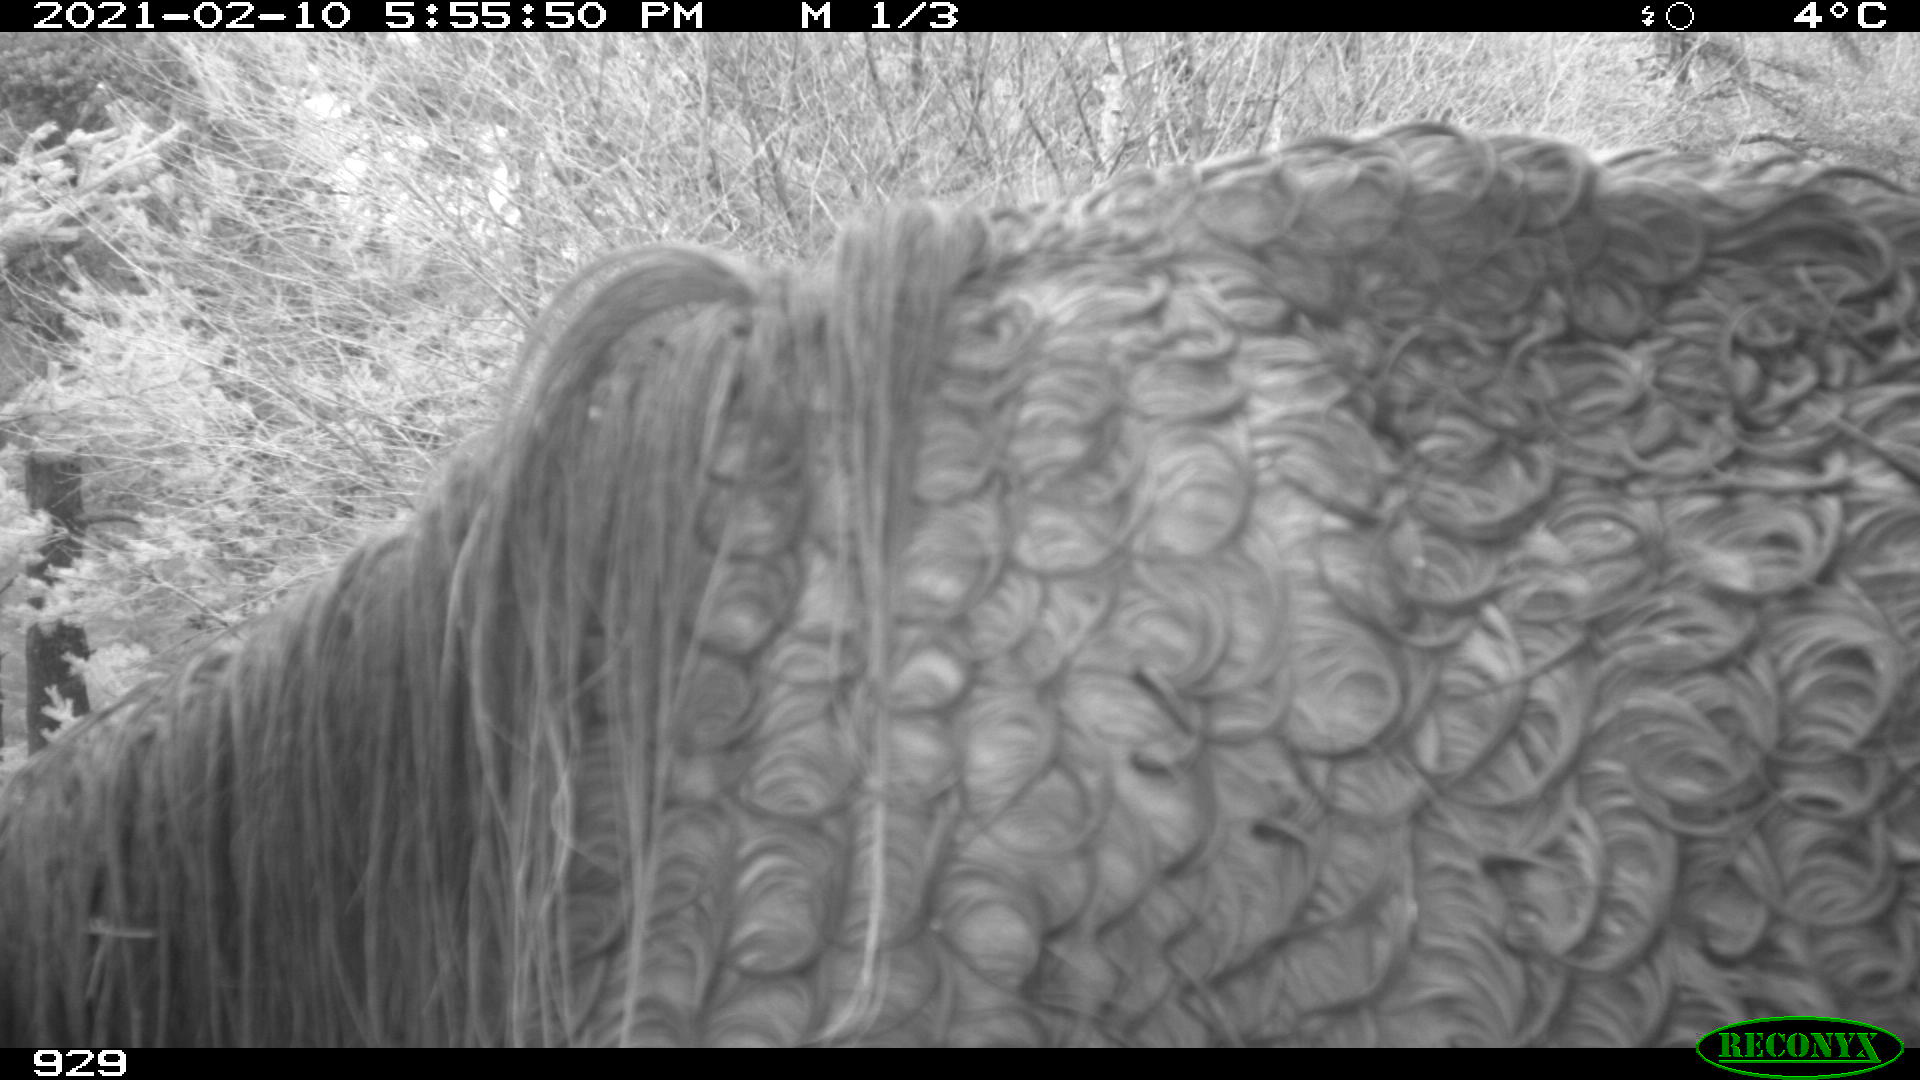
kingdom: Animalia
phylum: Chordata
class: Mammalia
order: Perissodactyla
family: Equidae
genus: Equus
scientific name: Equus caballus
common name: Horse
